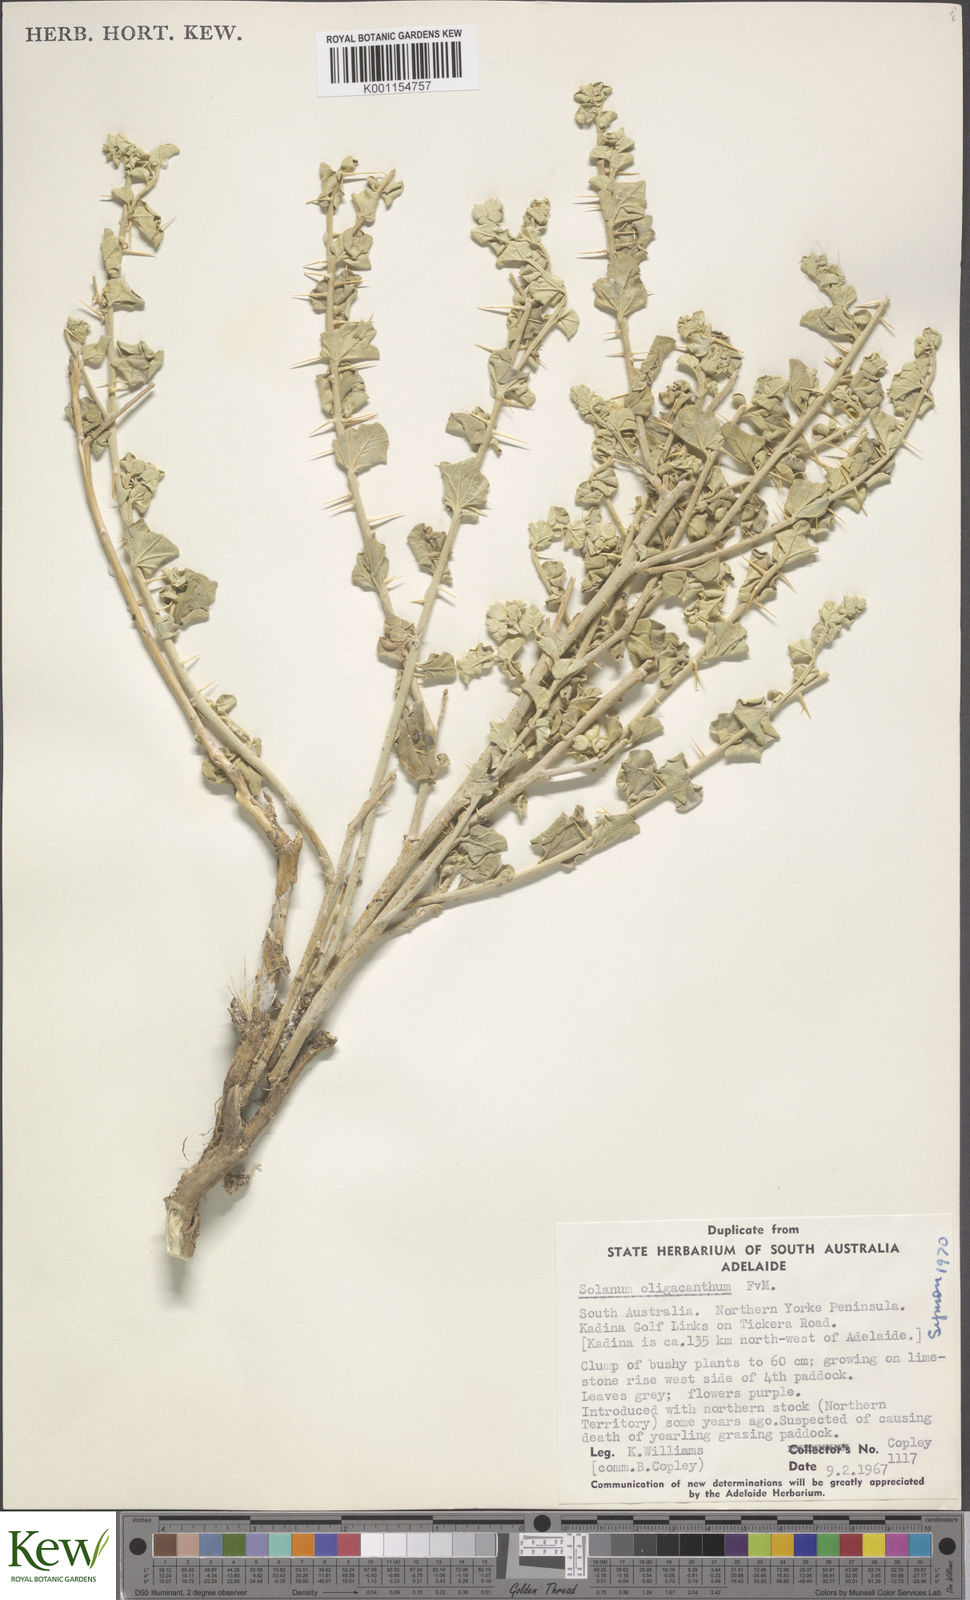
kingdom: Plantae
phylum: Tracheophyta
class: Magnoliopsida
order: Solanales
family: Solanaceae
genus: Solanum
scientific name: Solanum oligacanthum
